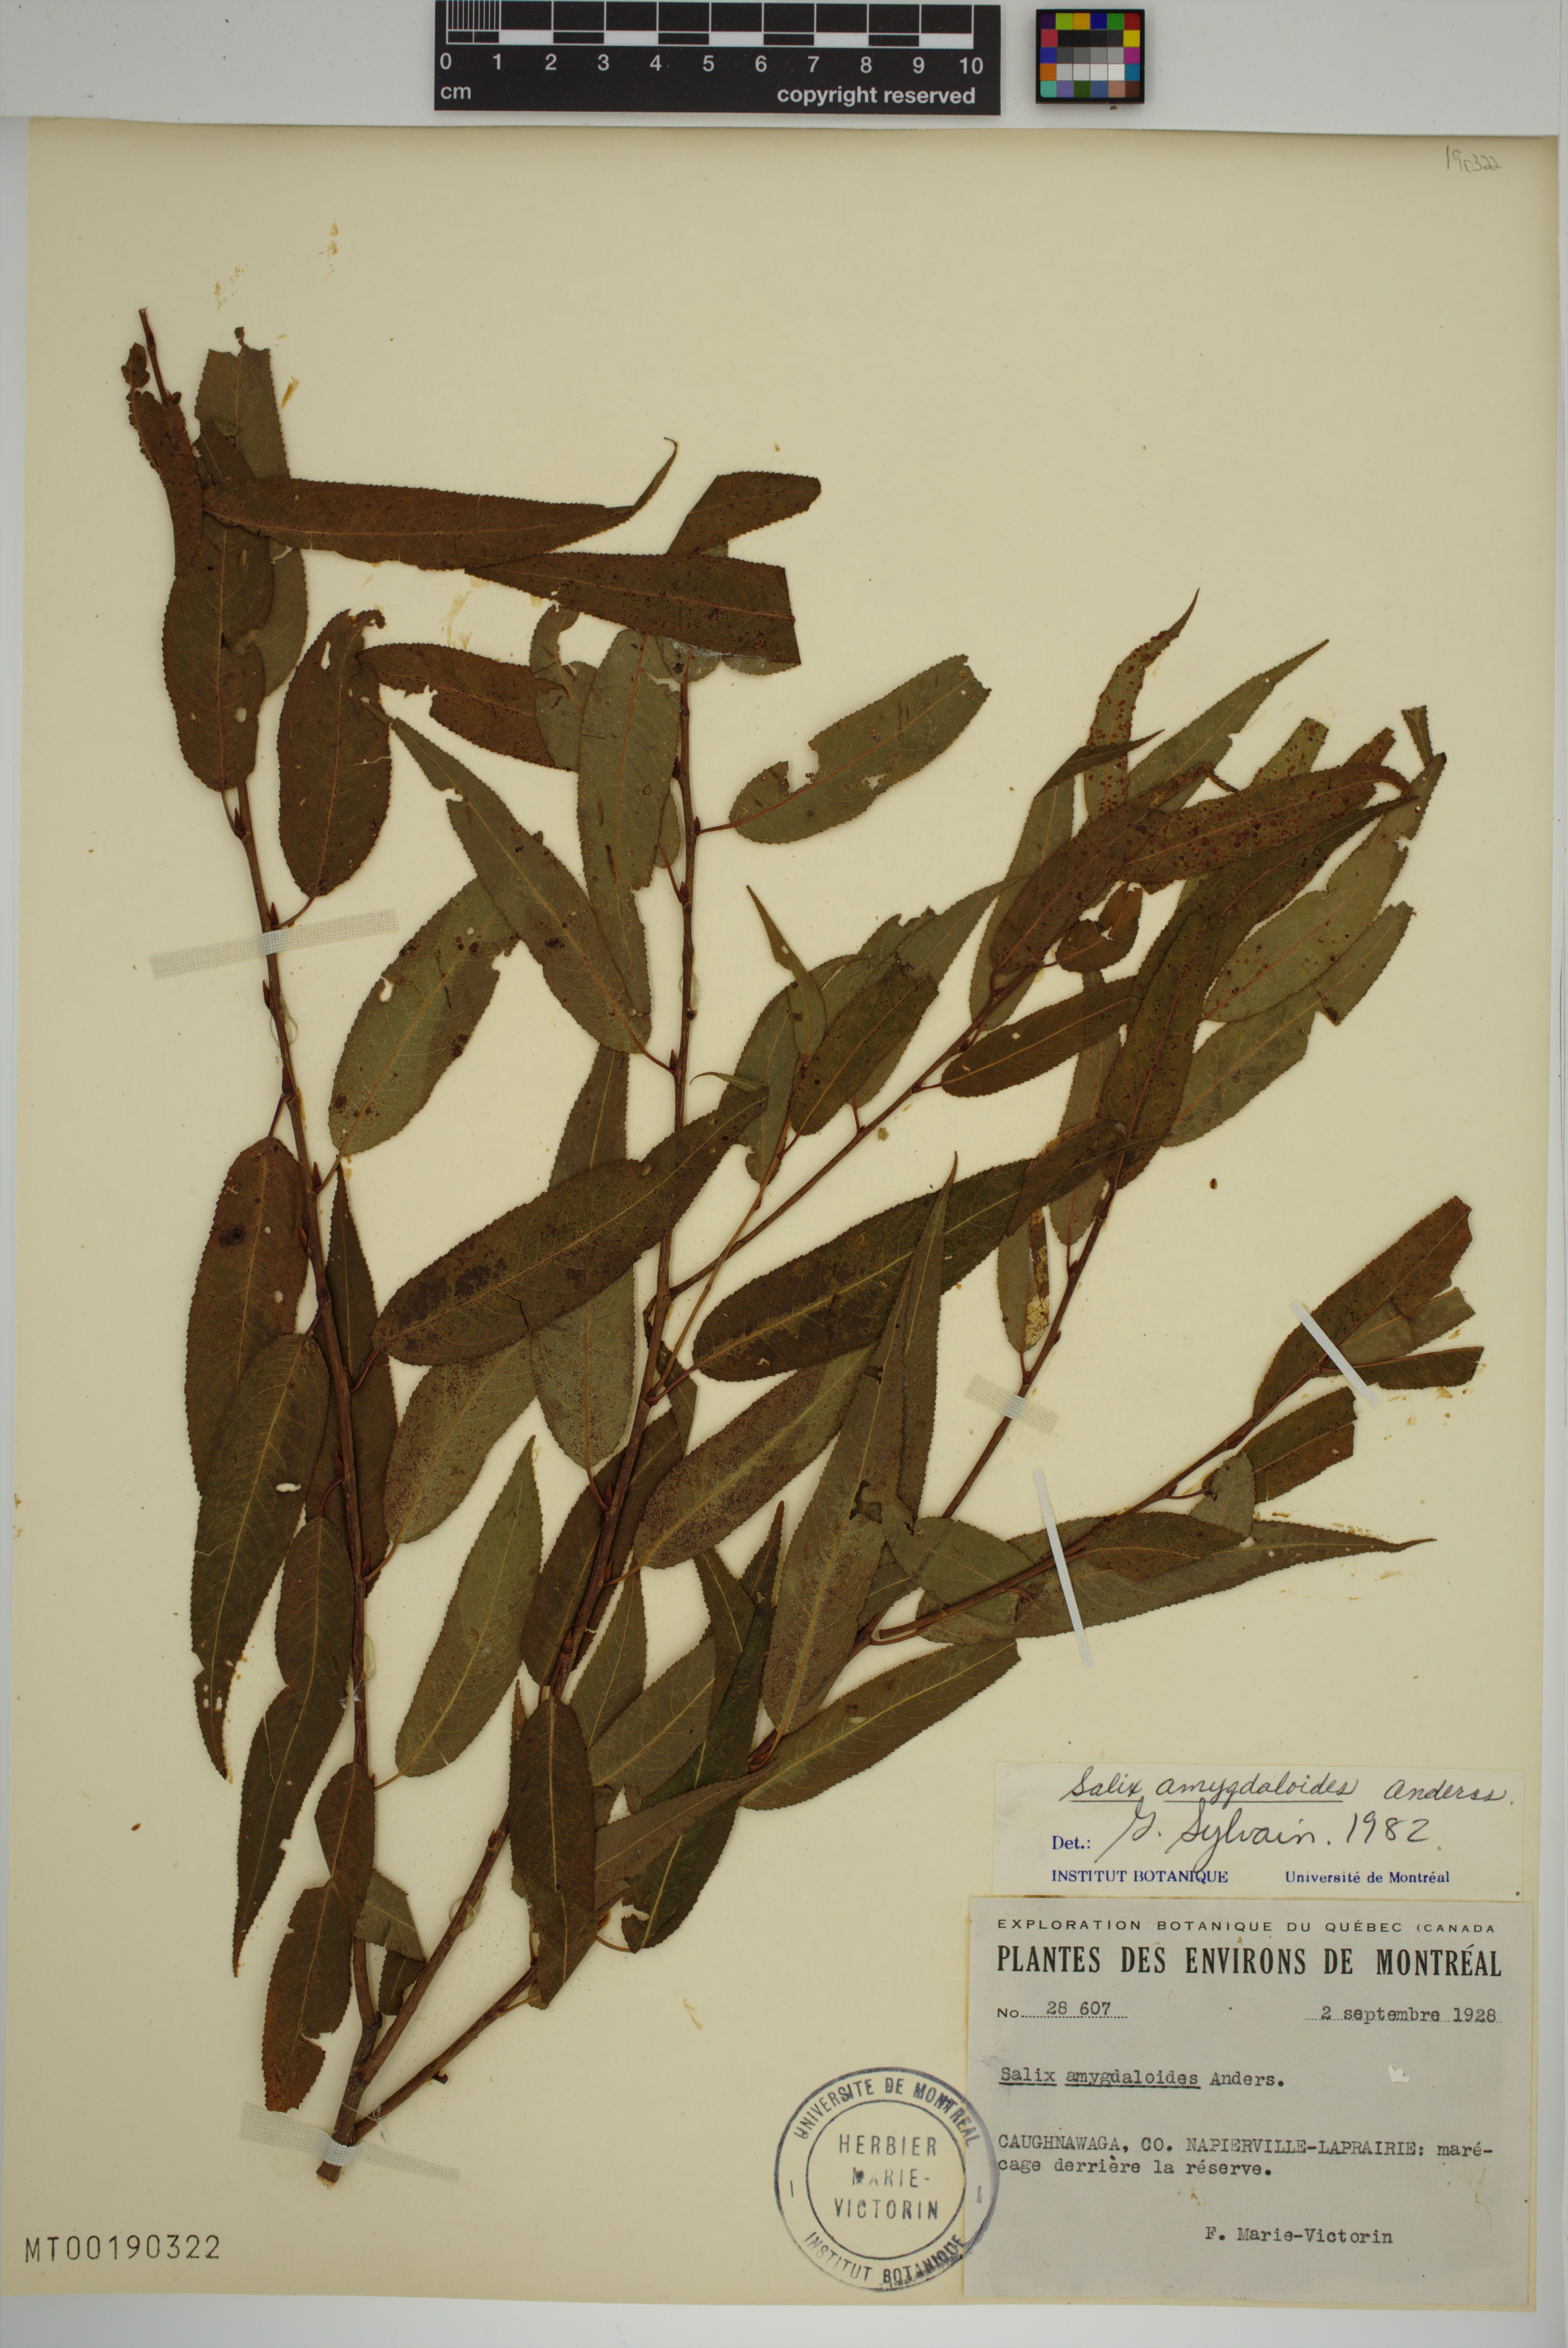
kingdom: Plantae
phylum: Tracheophyta
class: Magnoliopsida
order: Malpighiales
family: Salicaceae
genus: Salix
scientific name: Salix amygdaloides
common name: Peach leaf willow
